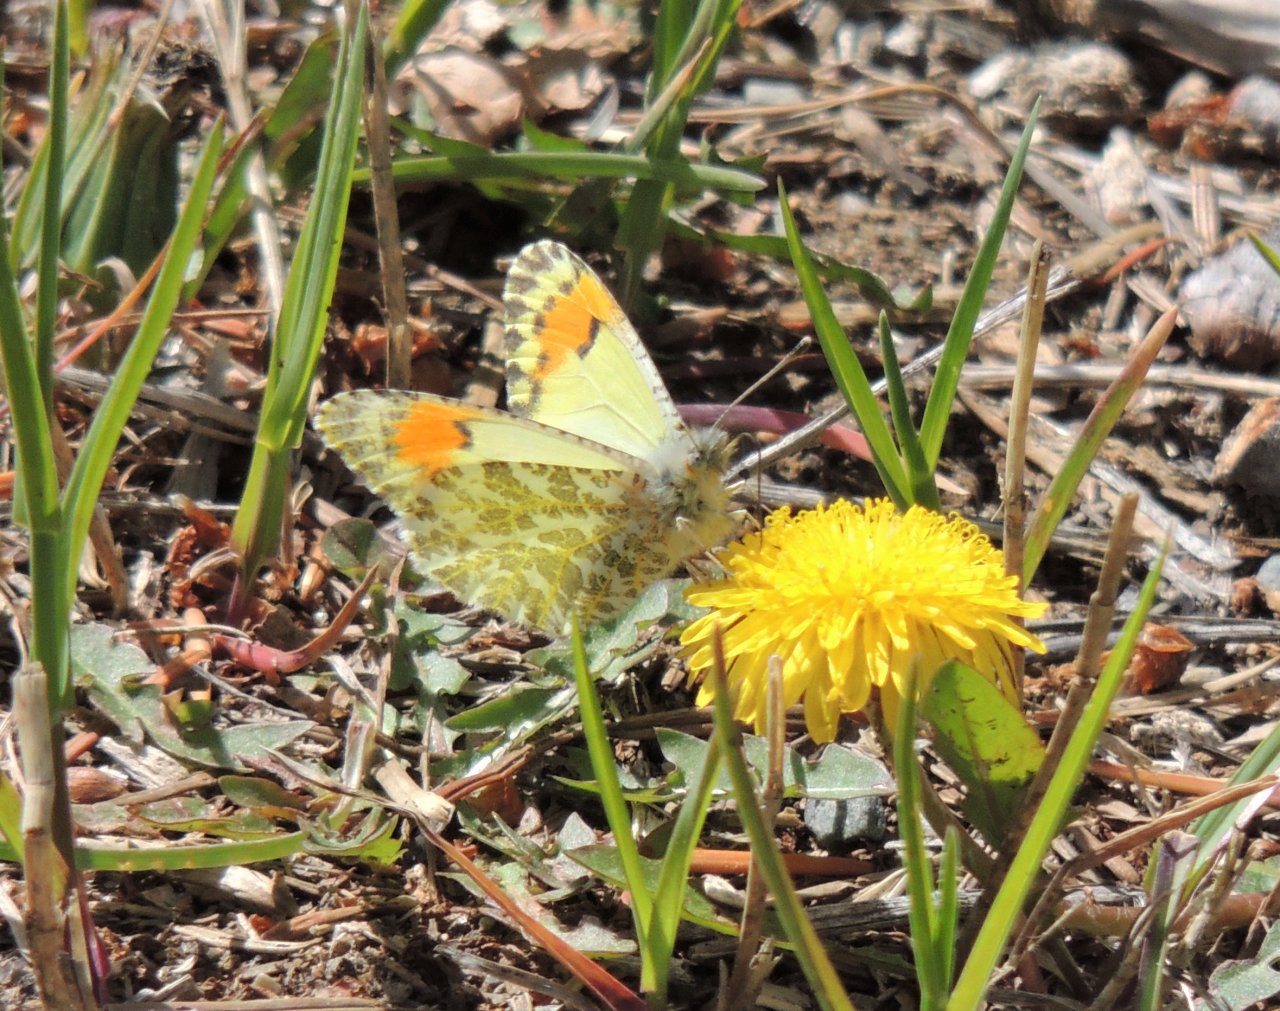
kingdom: Animalia
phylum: Arthropoda
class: Insecta
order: Lepidoptera
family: Pieridae
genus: Anthocharis
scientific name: Anthocharis sara
